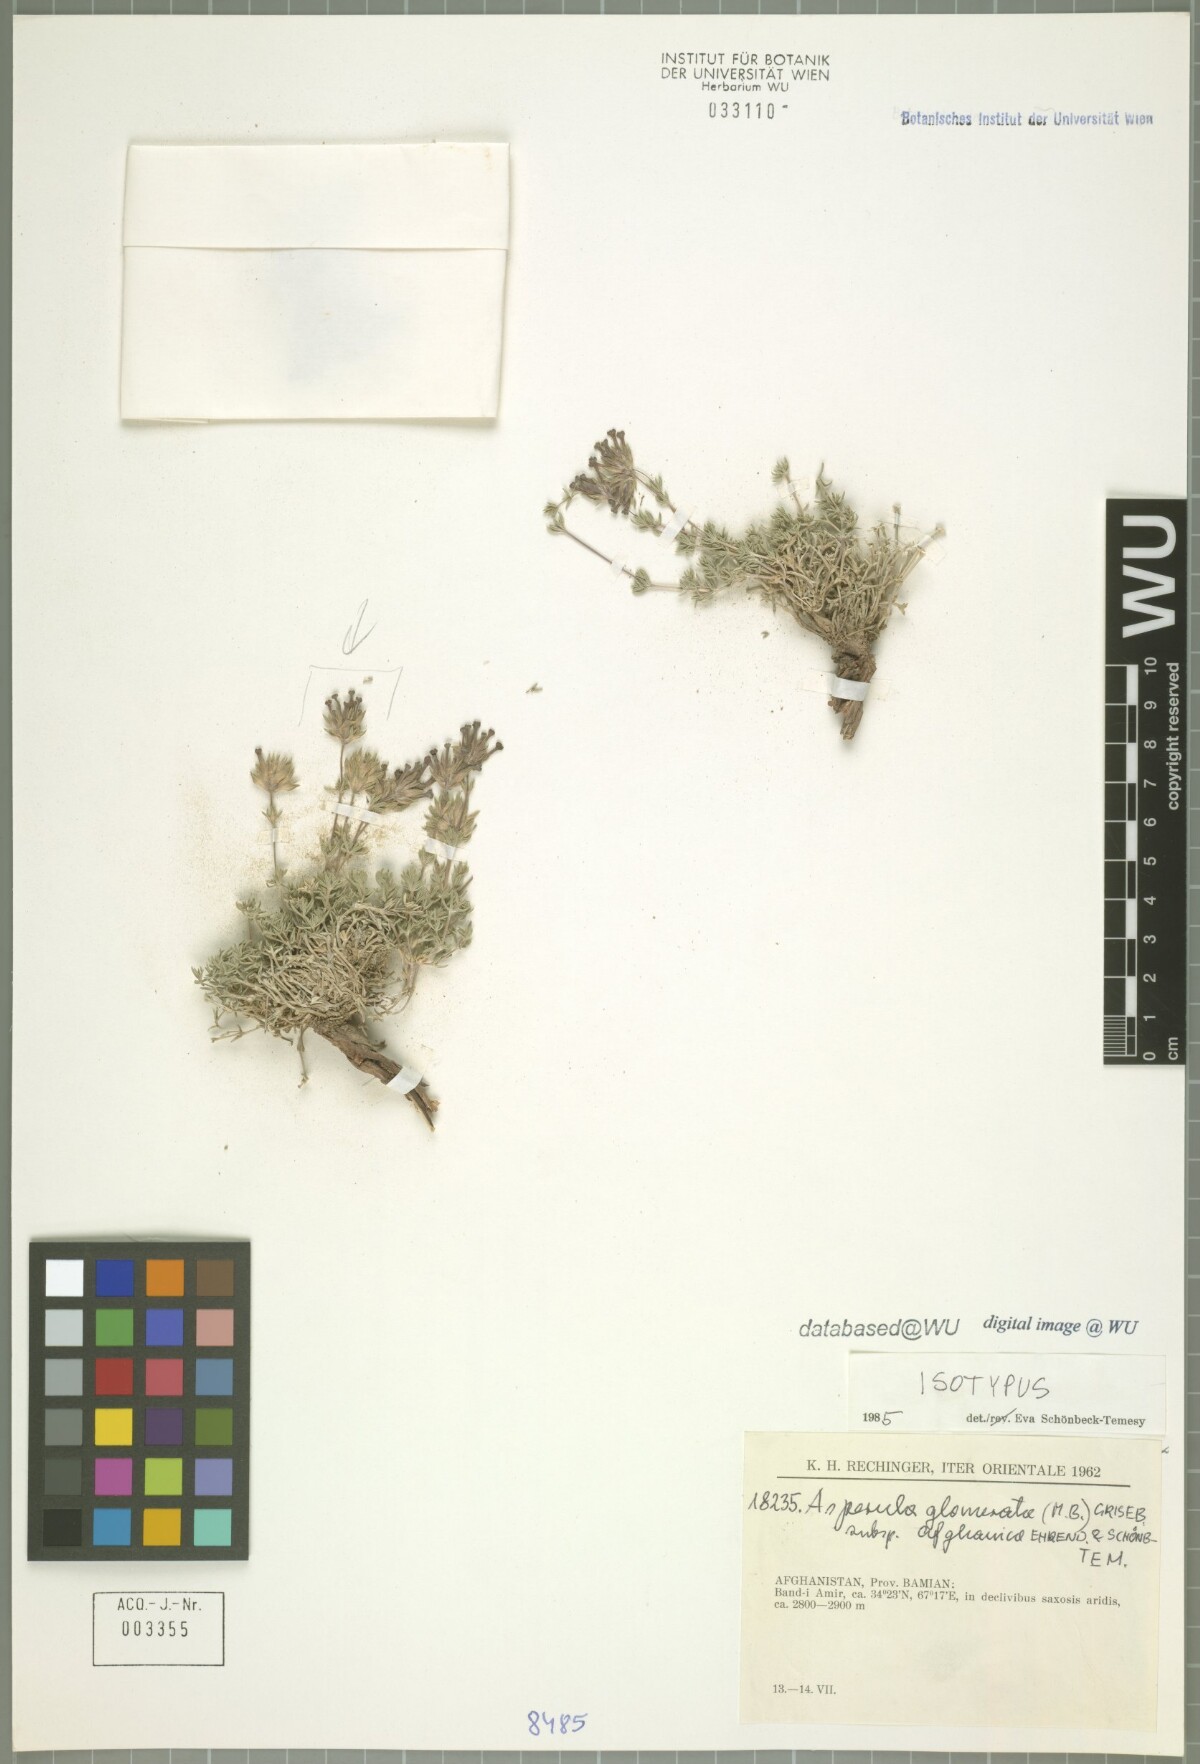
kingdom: Plantae
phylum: Tracheophyta
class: Magnoliopsida
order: Gentianales
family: Rubiaceae
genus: Asperula
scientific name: Asperula glomerata
